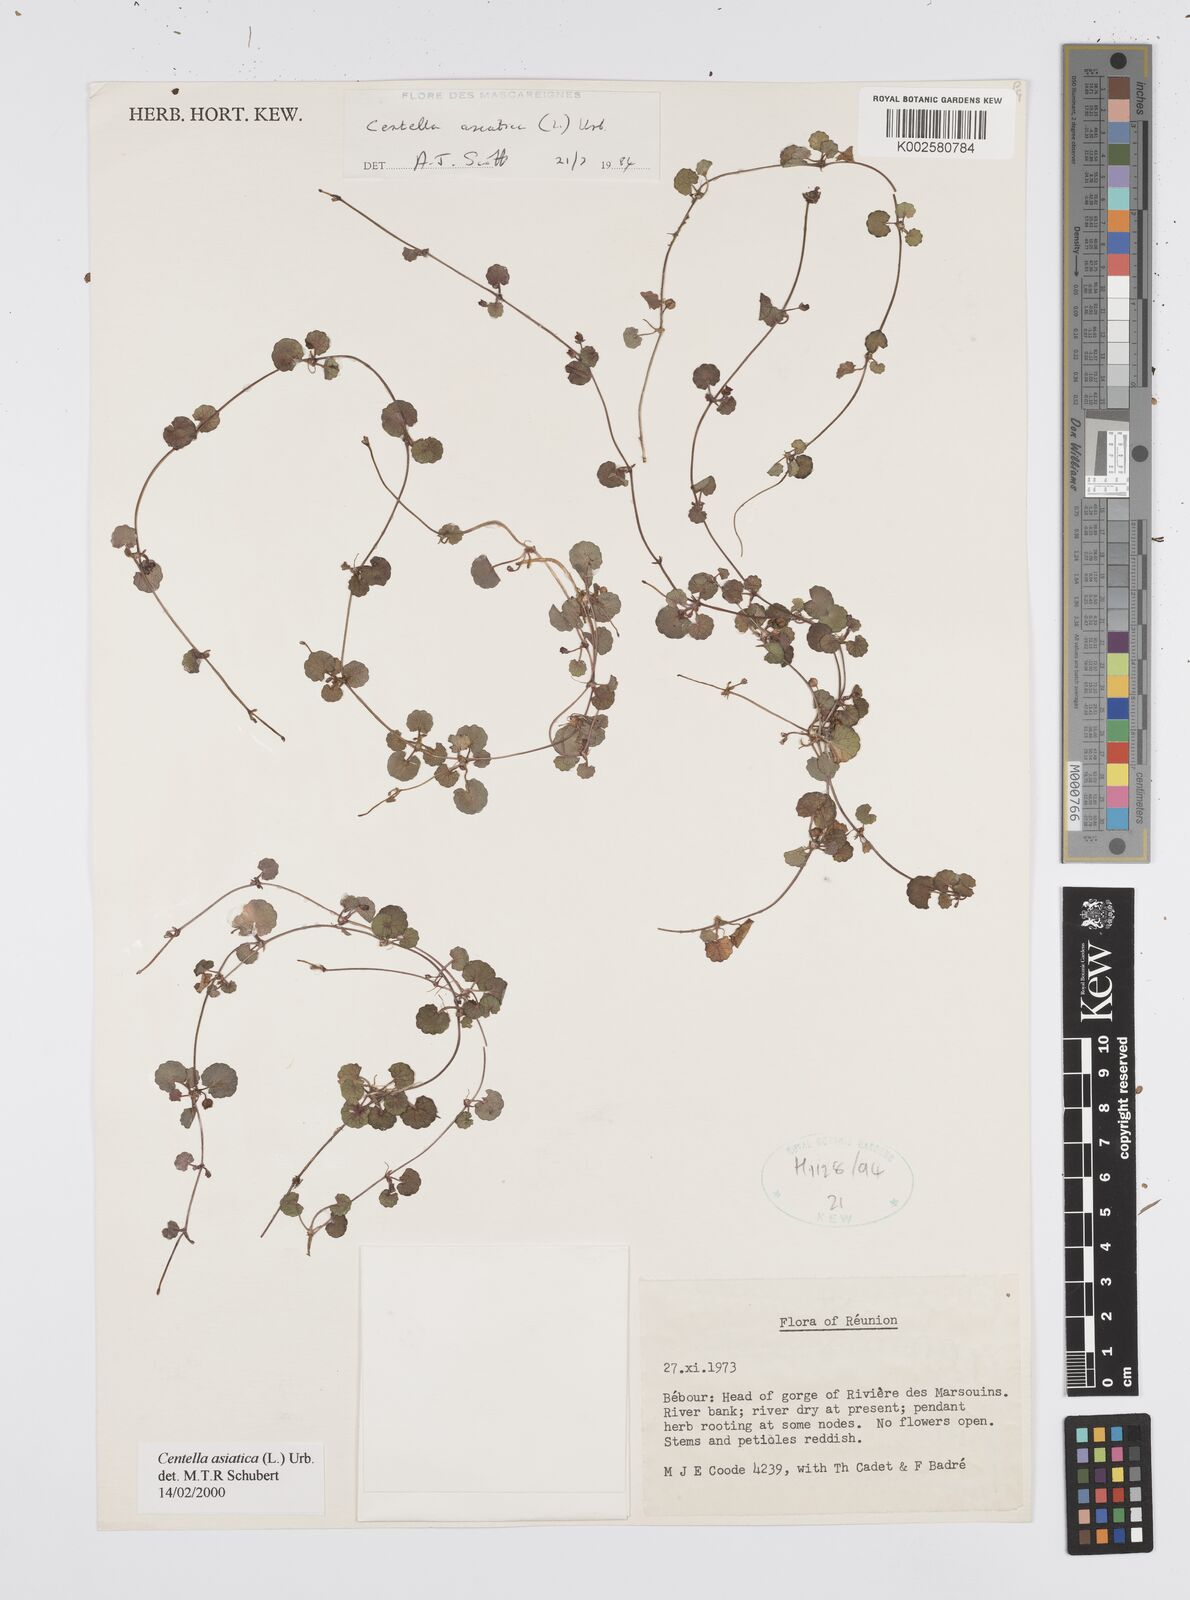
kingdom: Plantae
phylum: Tracheophyta
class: Magnoliopsida
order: Apiales
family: Apiaceae
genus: Centella
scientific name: Centella asiatica
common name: Spadeleaf
